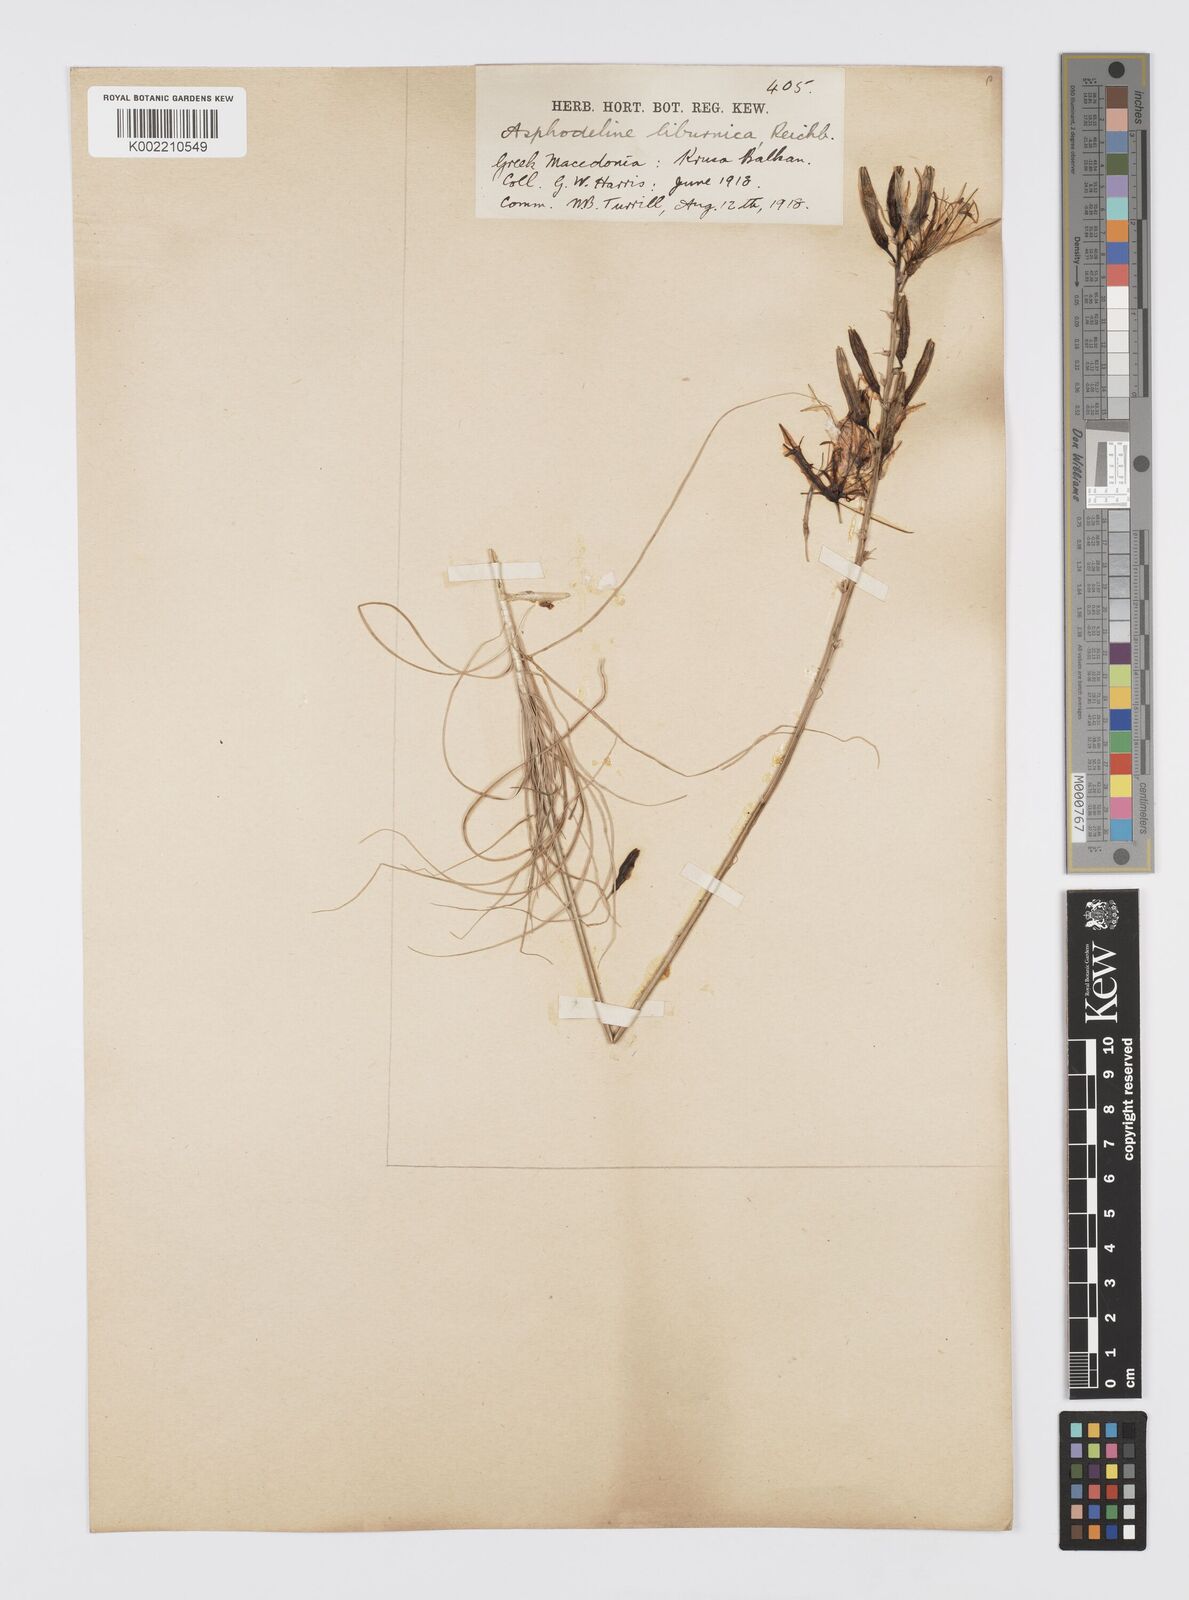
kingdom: Plantae
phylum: Tracheophyta
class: Liliopsida
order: Asparagales
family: Asphodelaceae
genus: Asphodeline
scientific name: Asphodeline liburnica
